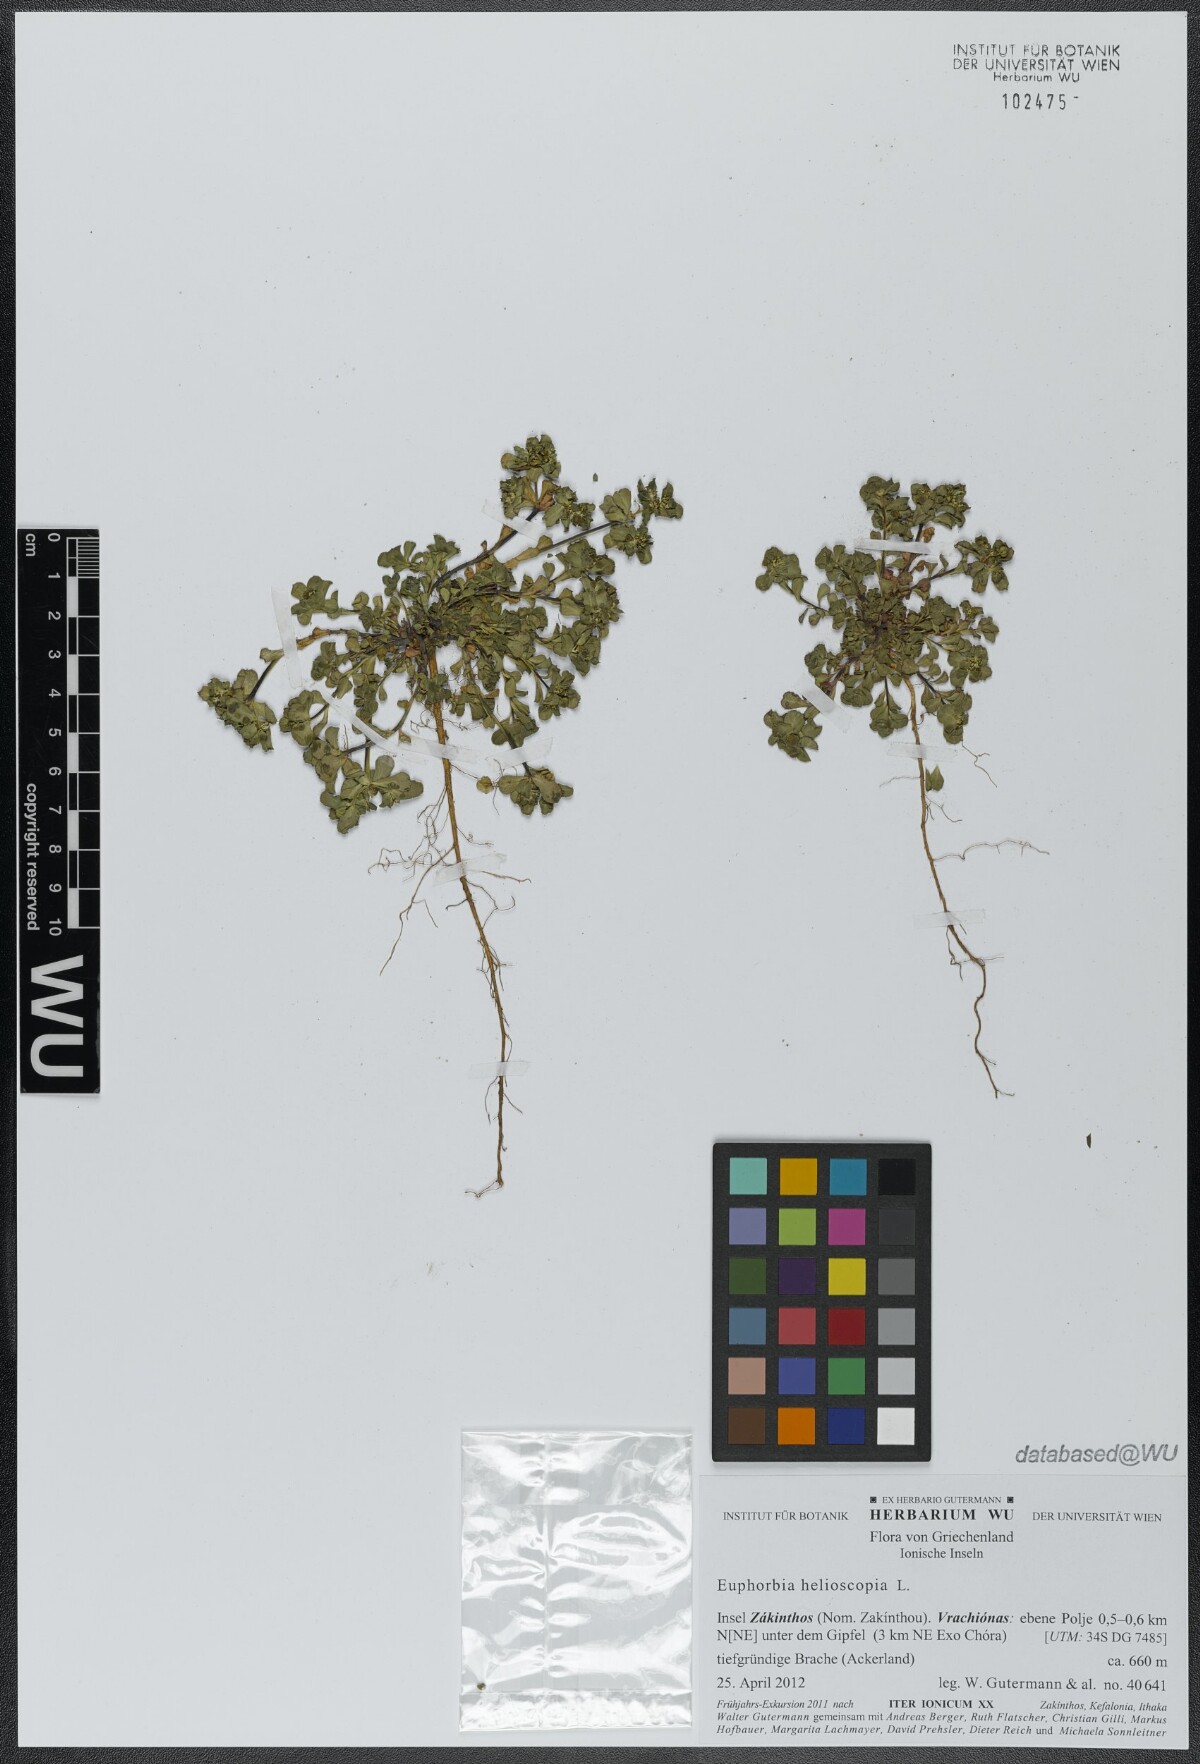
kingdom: Plantae
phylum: Tracheophyta
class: Magnoliopsida
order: Malpighiales
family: Euphorbiaceae
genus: Euphorbia
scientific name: Euphorbia helioscopia
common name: Sun spurge
